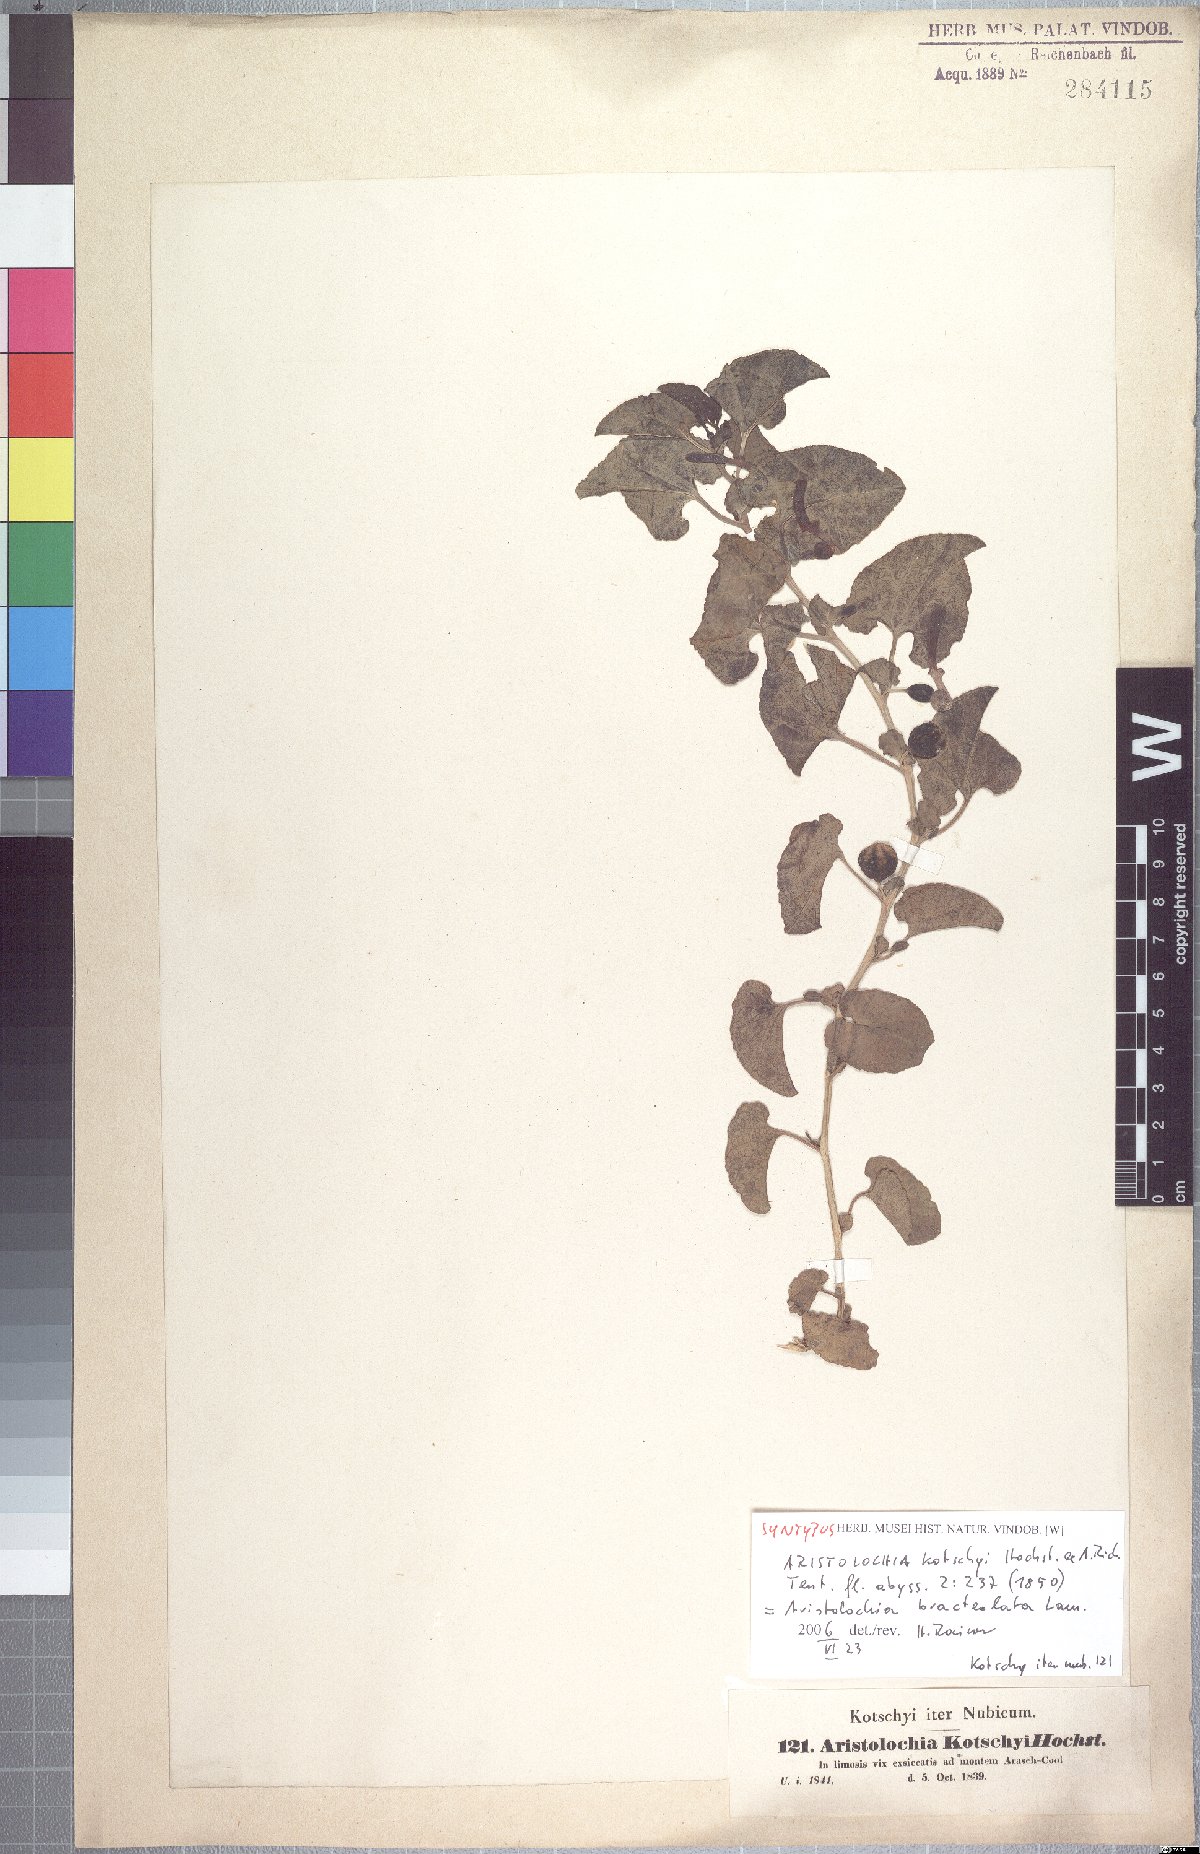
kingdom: Plantae
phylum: Tracheophyta
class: Magnoliopsida
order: Piperales
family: Aristolochiaceae
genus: Aristolochia
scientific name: Aristolochia bracteolata
